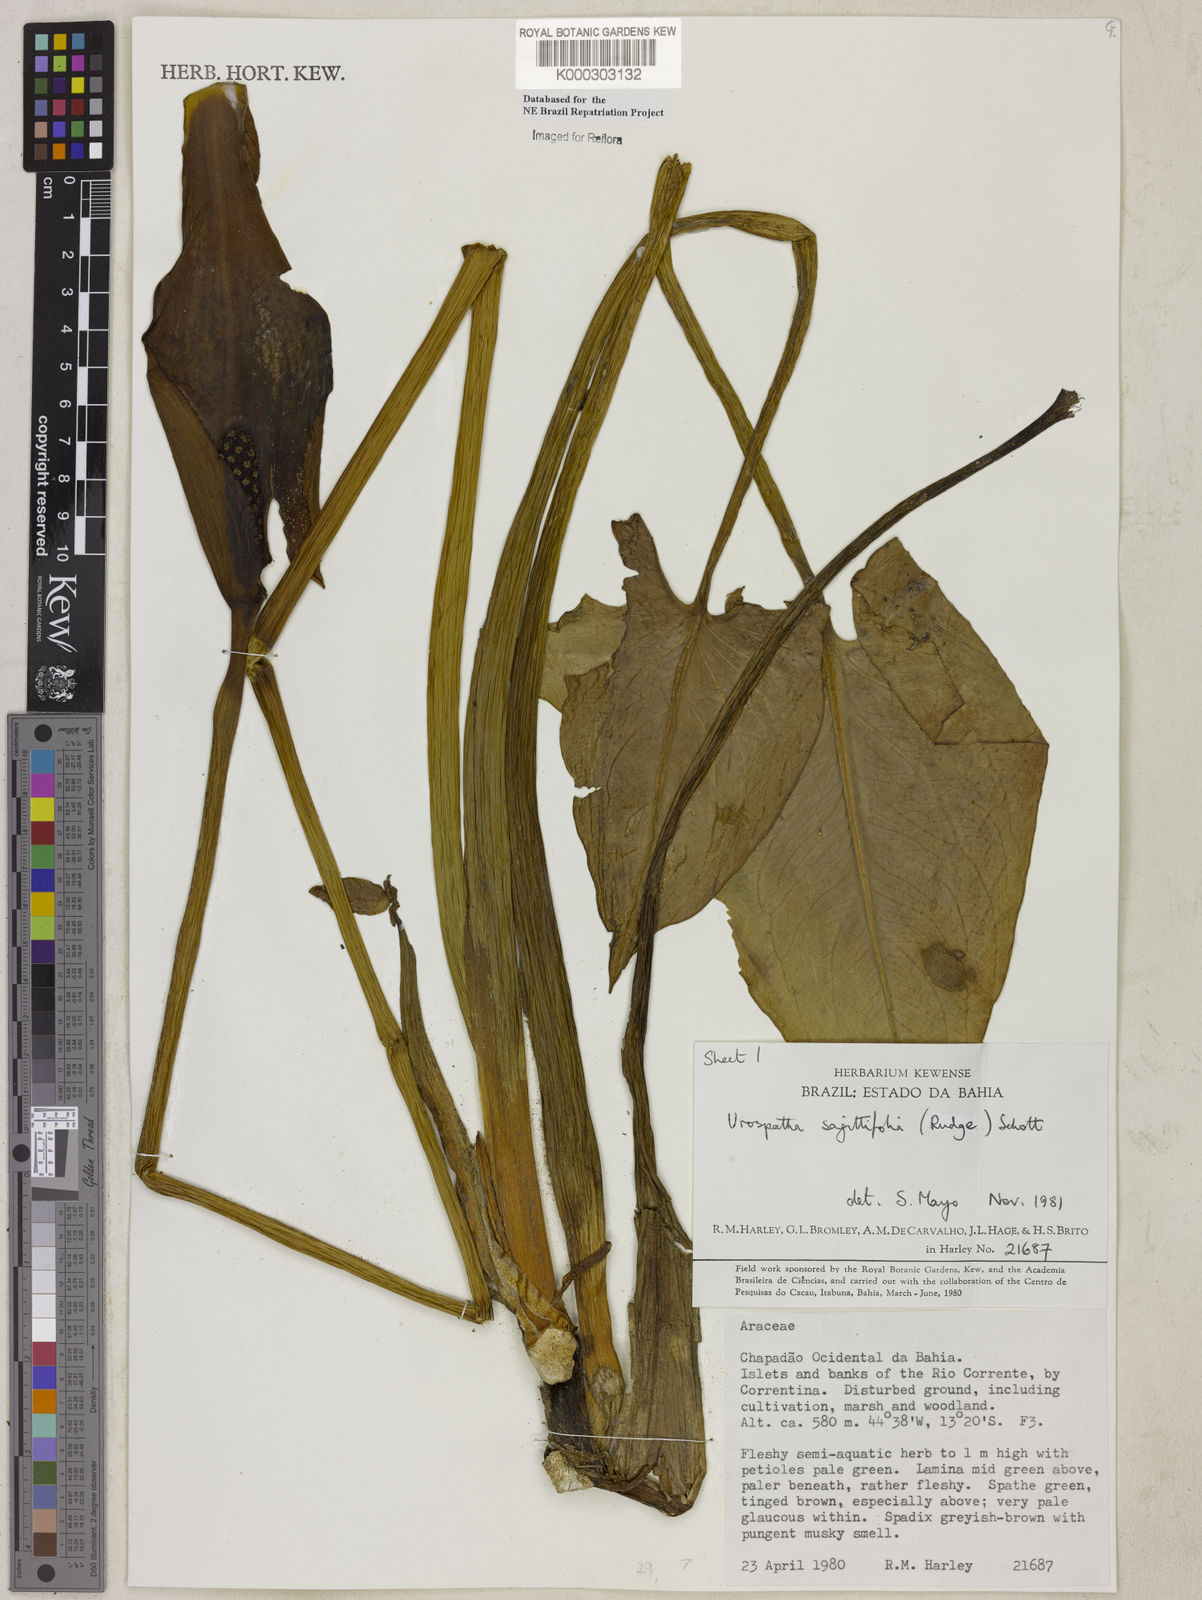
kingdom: Plantae
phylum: Tracheophyta
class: Liliopsida
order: Alismatales
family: Araceae
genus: Urospatha
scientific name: Urospatha sagittifolia
